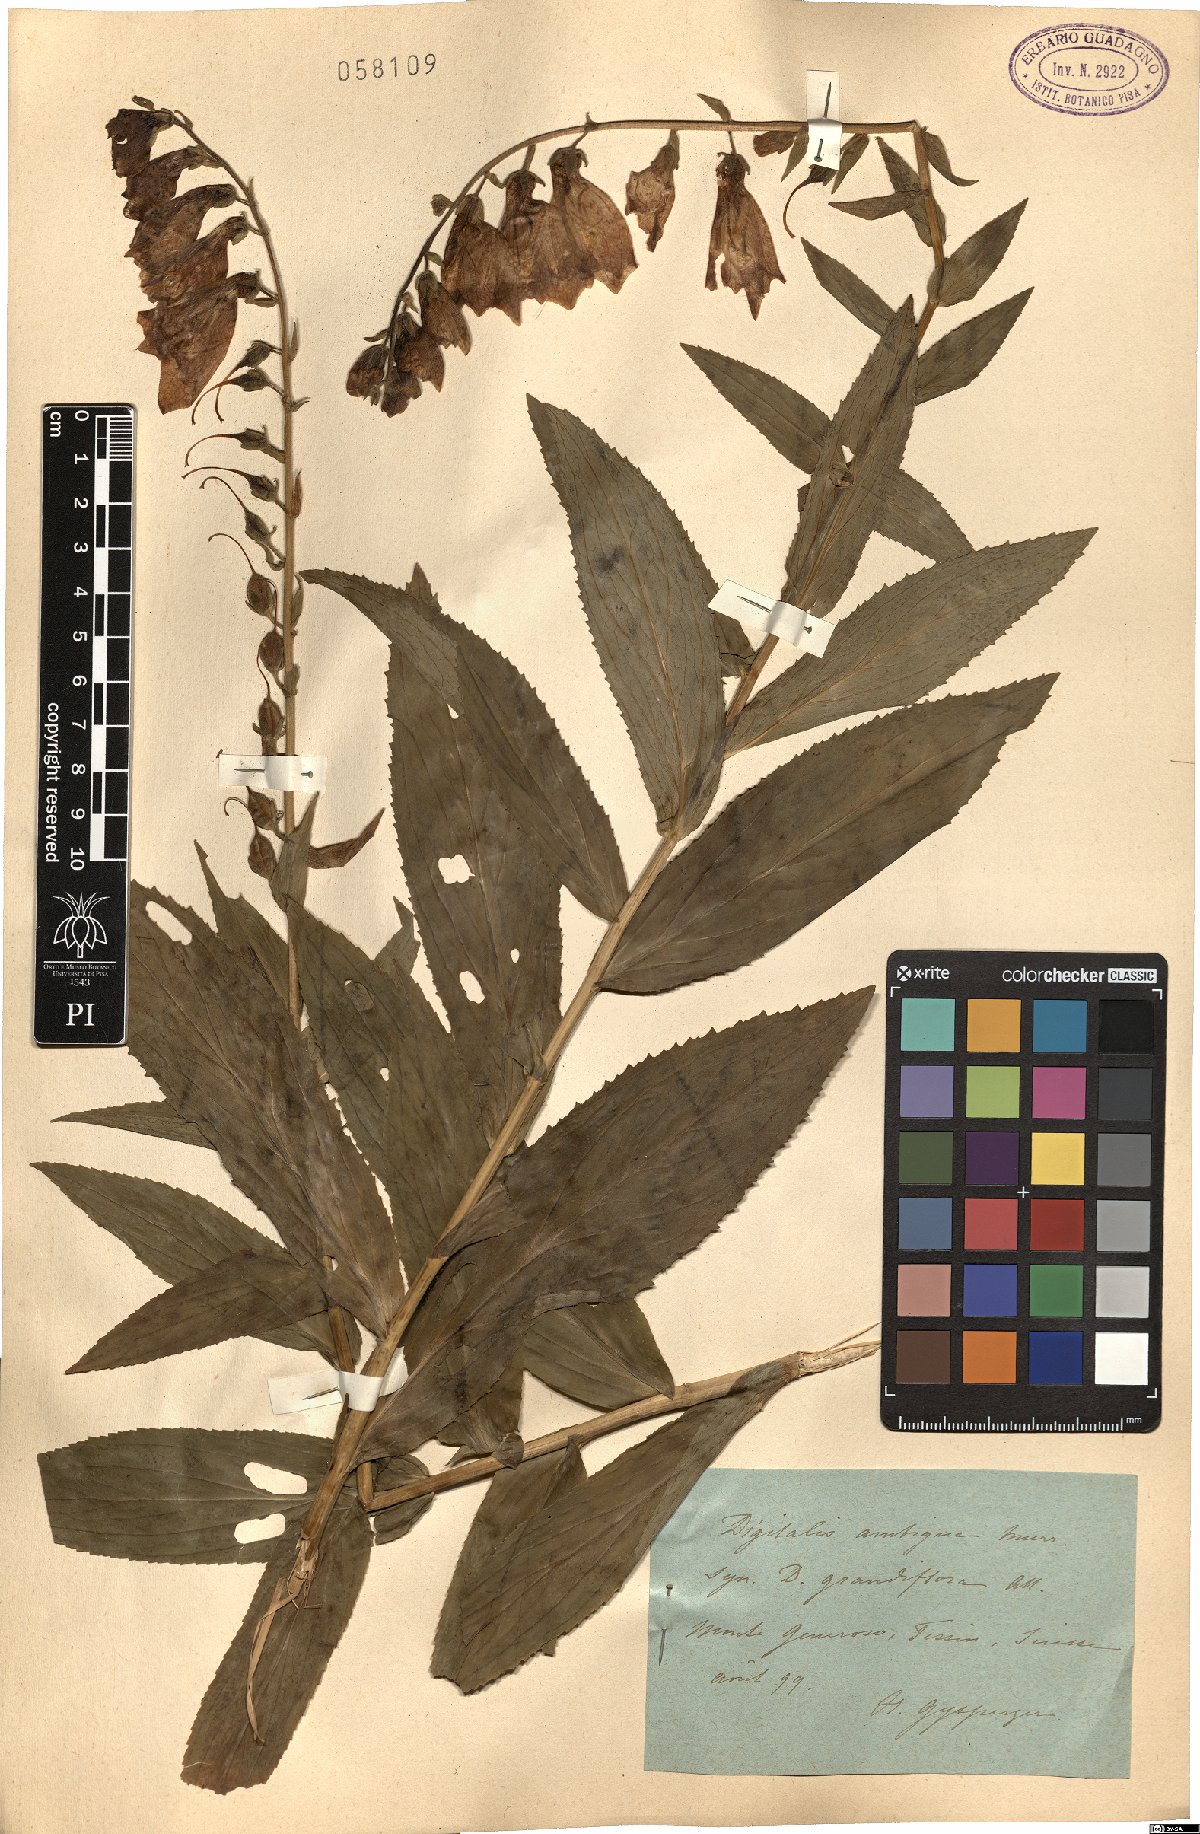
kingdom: Plantae
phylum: Tracheophyta
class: Magnoliopsida
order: Lamiales
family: Plantaginaceae
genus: Digitalis
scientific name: Digitalis grandiflora
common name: Yellow foxglove
